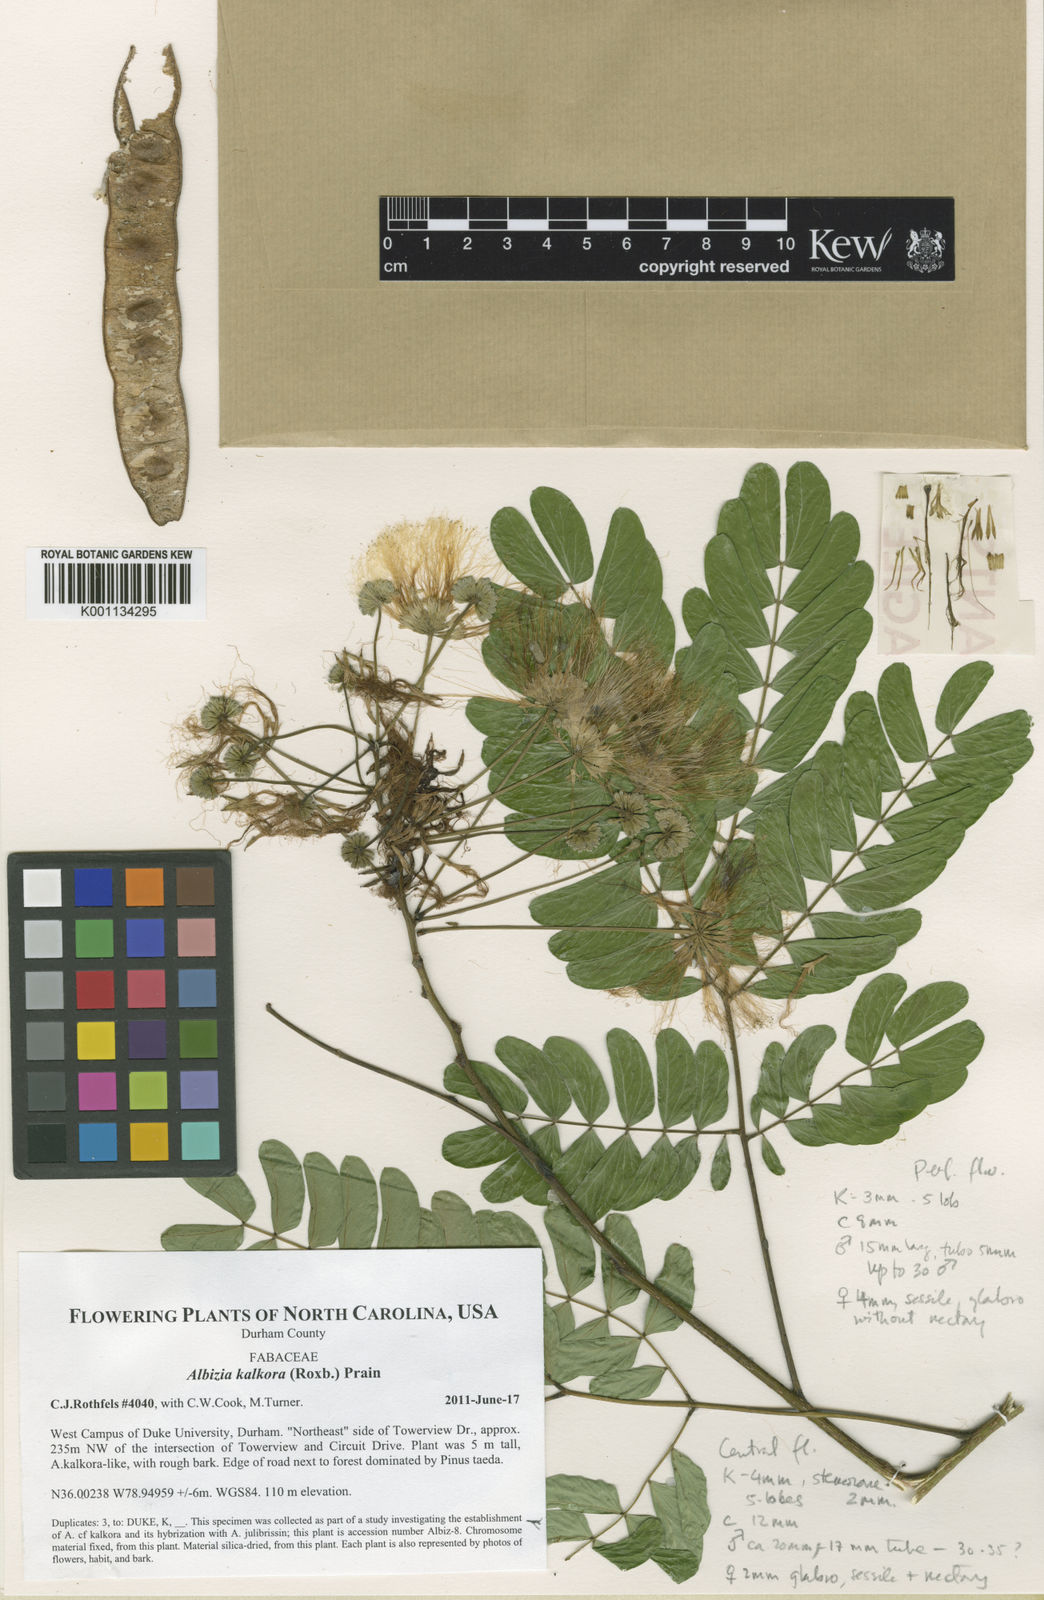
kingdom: Plantae
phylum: Tracheophyta
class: Magnoliopsida
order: Fabales
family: Fabaceae
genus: Albizia
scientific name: Albizia kalkora
